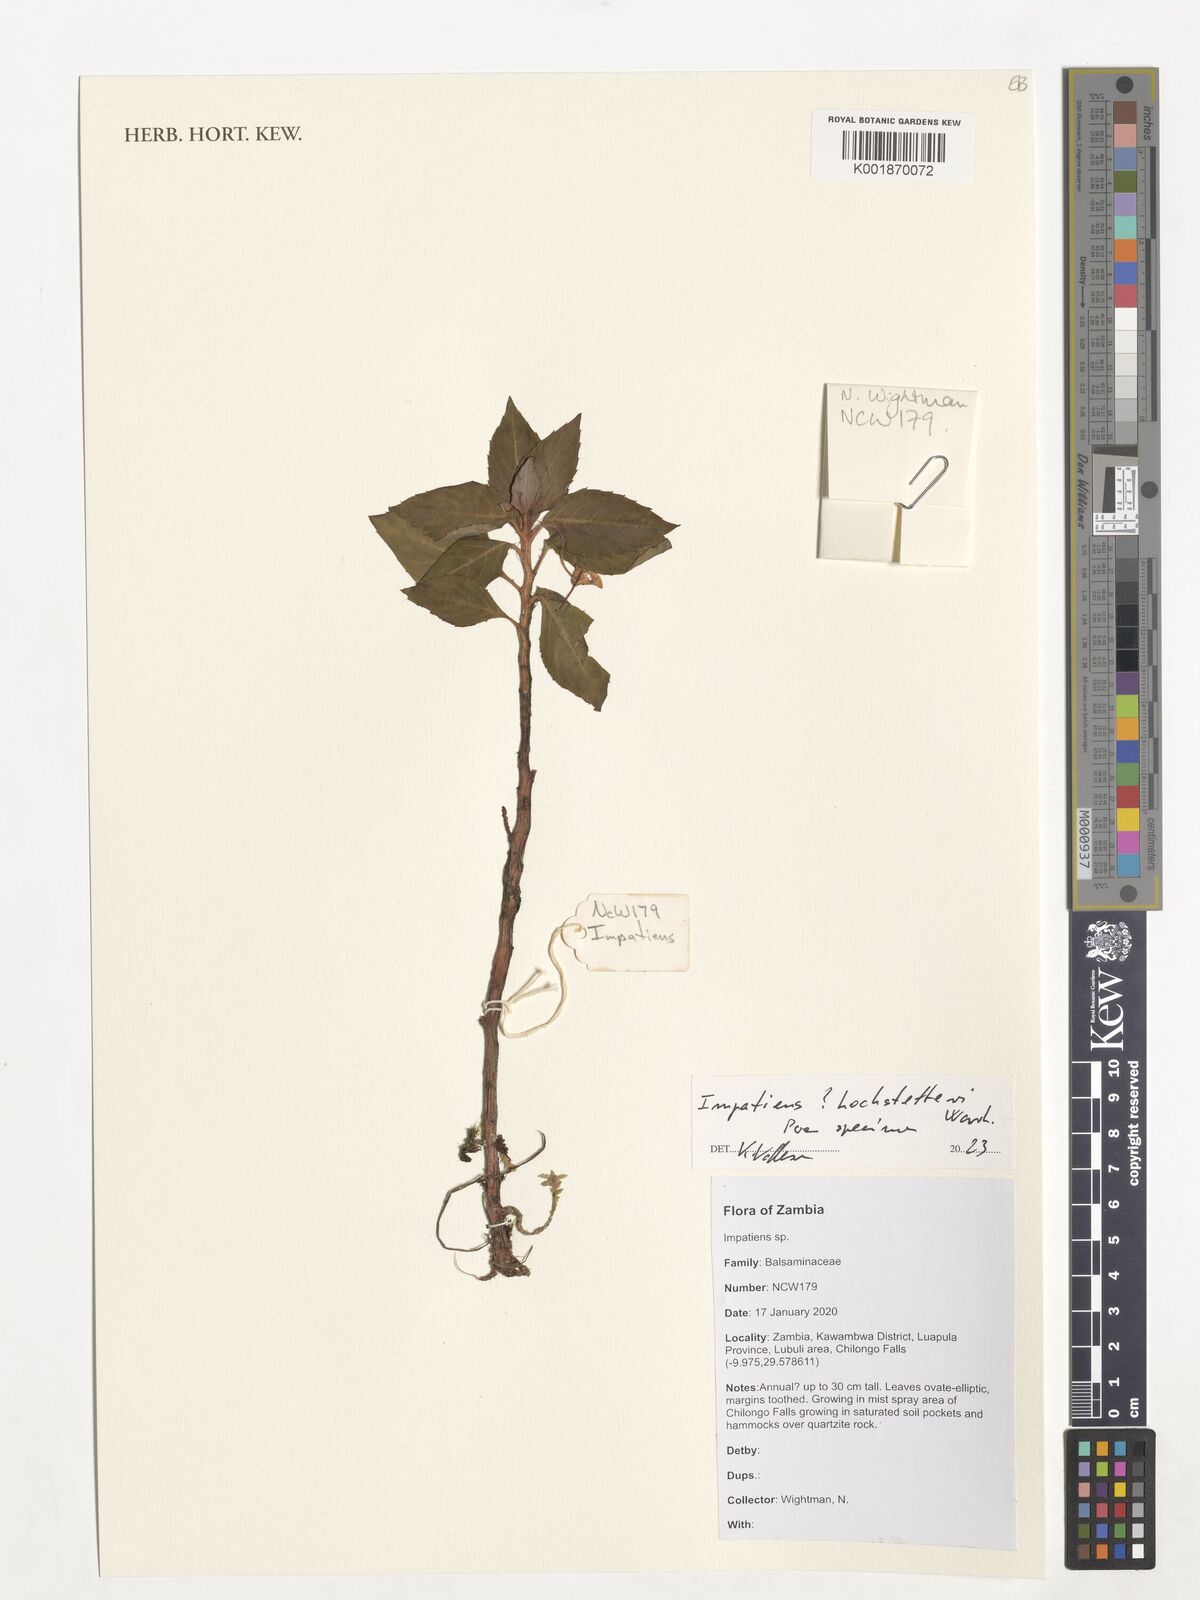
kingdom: Plantae
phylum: Tracheophyta
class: Magnoliopsida
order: Ericales
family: Balsaminaceae
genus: Impatiens
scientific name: Impatiens hochstetteri
